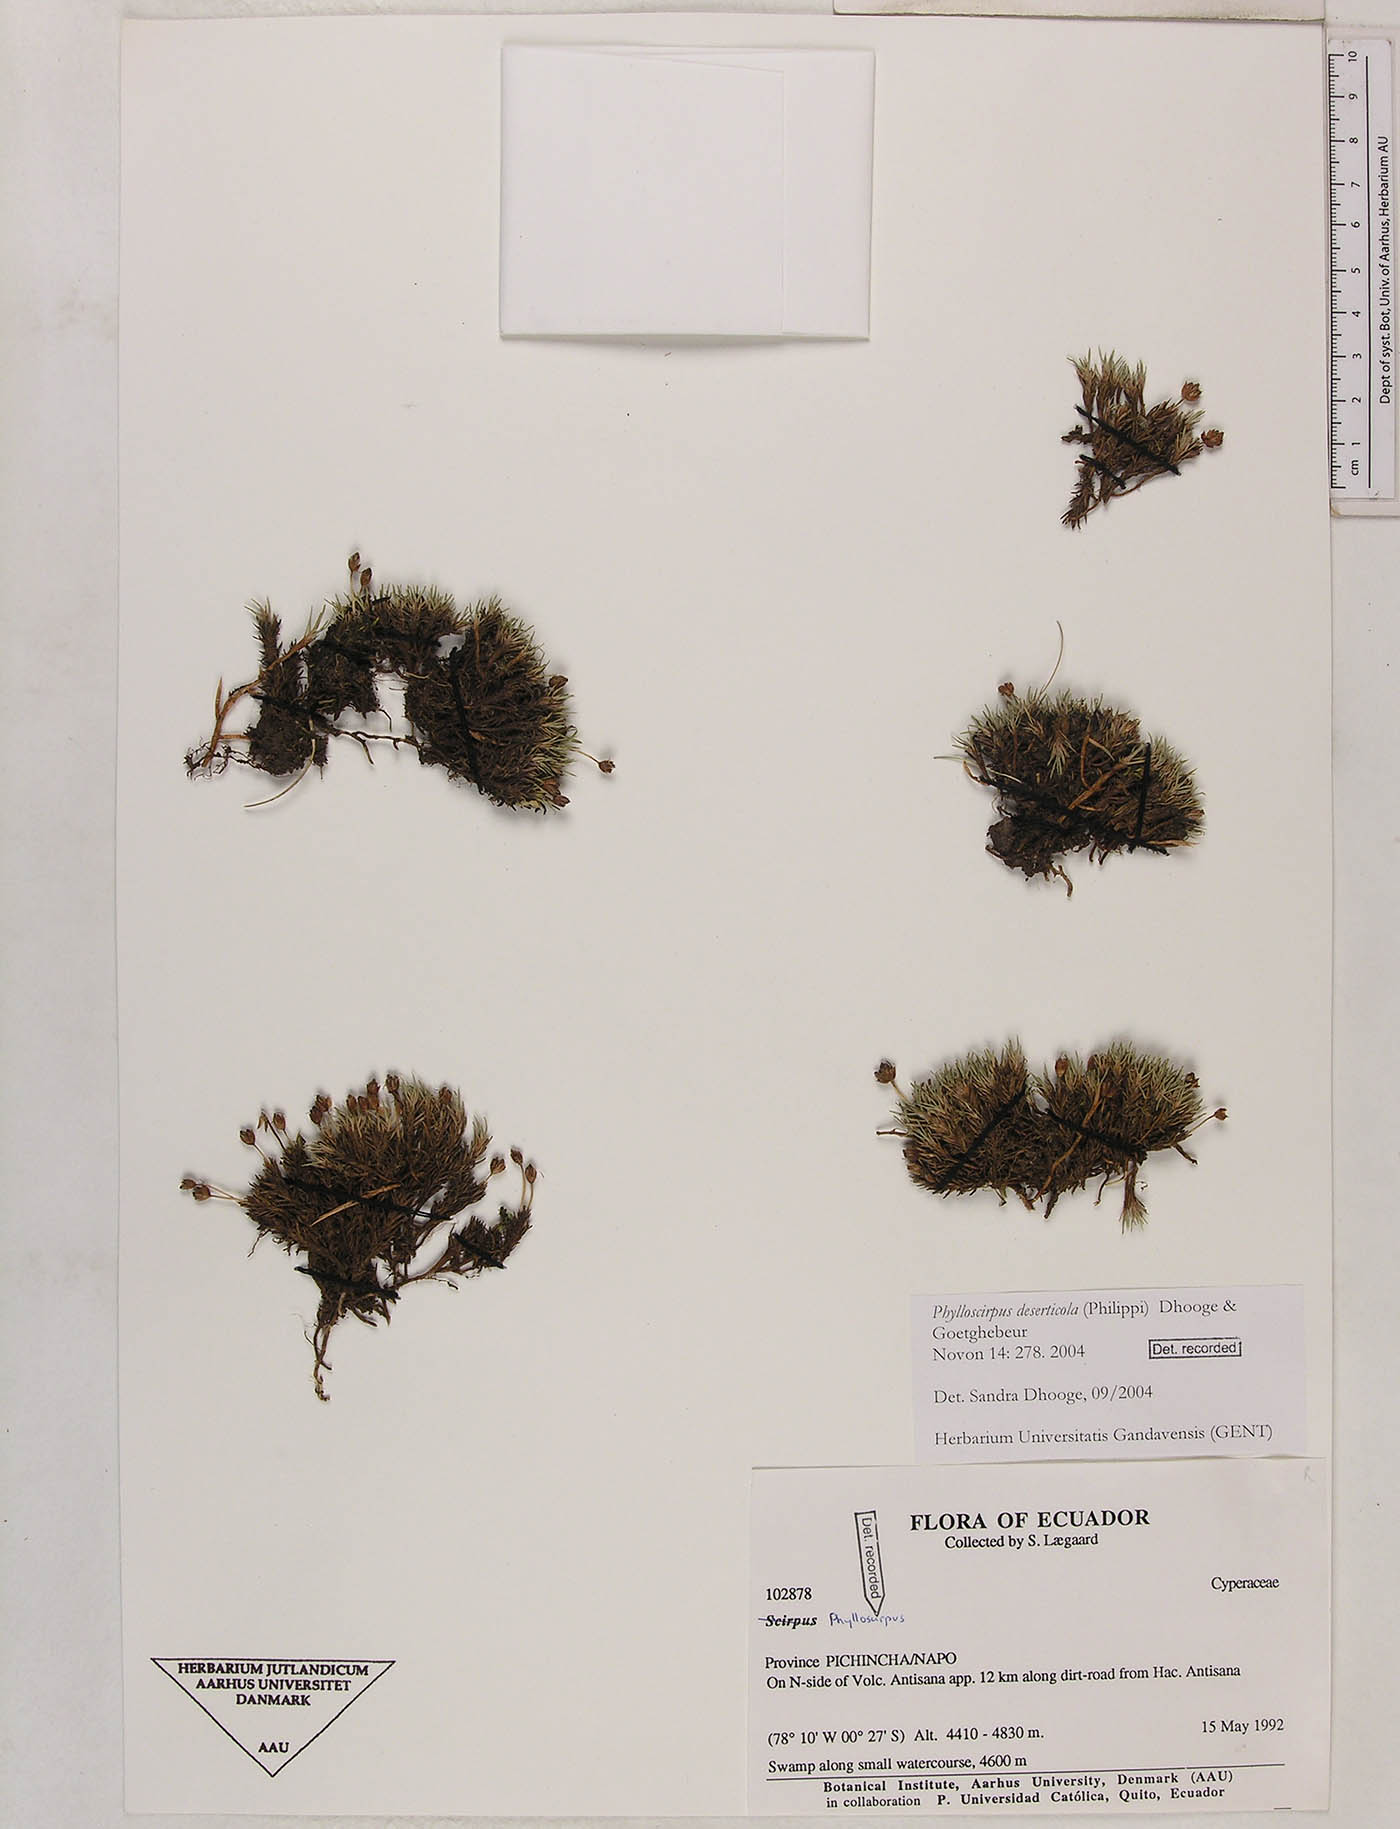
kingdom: Plantae
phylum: Tracheophyta
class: Liliopsida
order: Poales
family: Cyperaceae
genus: Phylloscirpus
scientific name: Phylloscirpus deserticola
